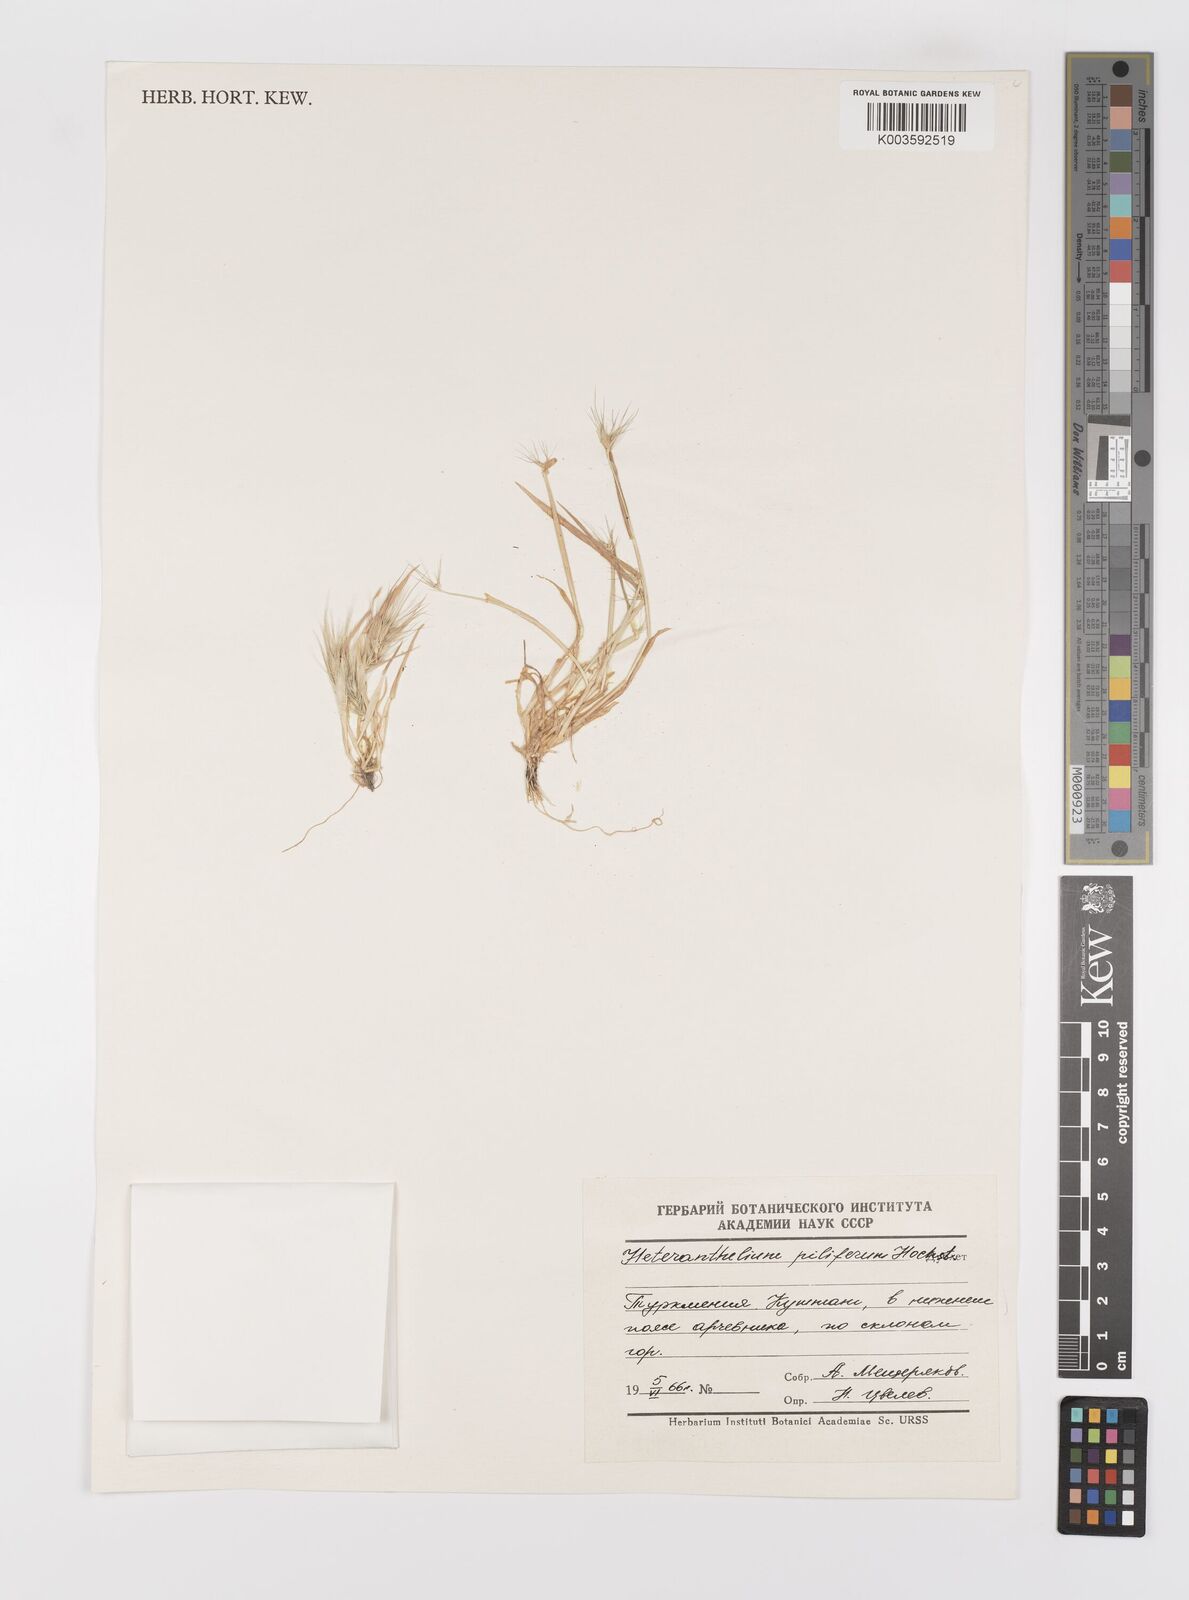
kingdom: Plantae
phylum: Tracheophyta
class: Liliopsida
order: Poales
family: Poaceae
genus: Heteranthelium
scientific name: Heteranthelium piliferum
